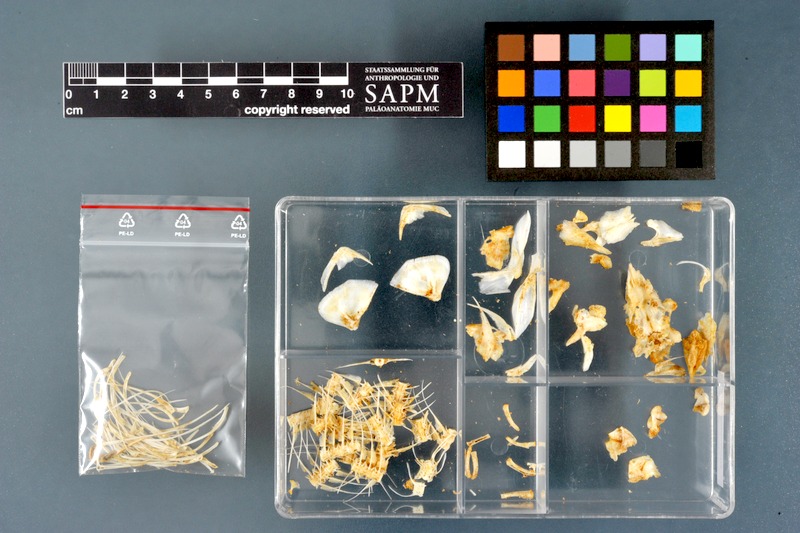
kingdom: Animalia
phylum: Chordata
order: Osteoglossiformes
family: Mormyridae
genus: Hyperopisus
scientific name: Hyperopisus bebe
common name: Ngai
